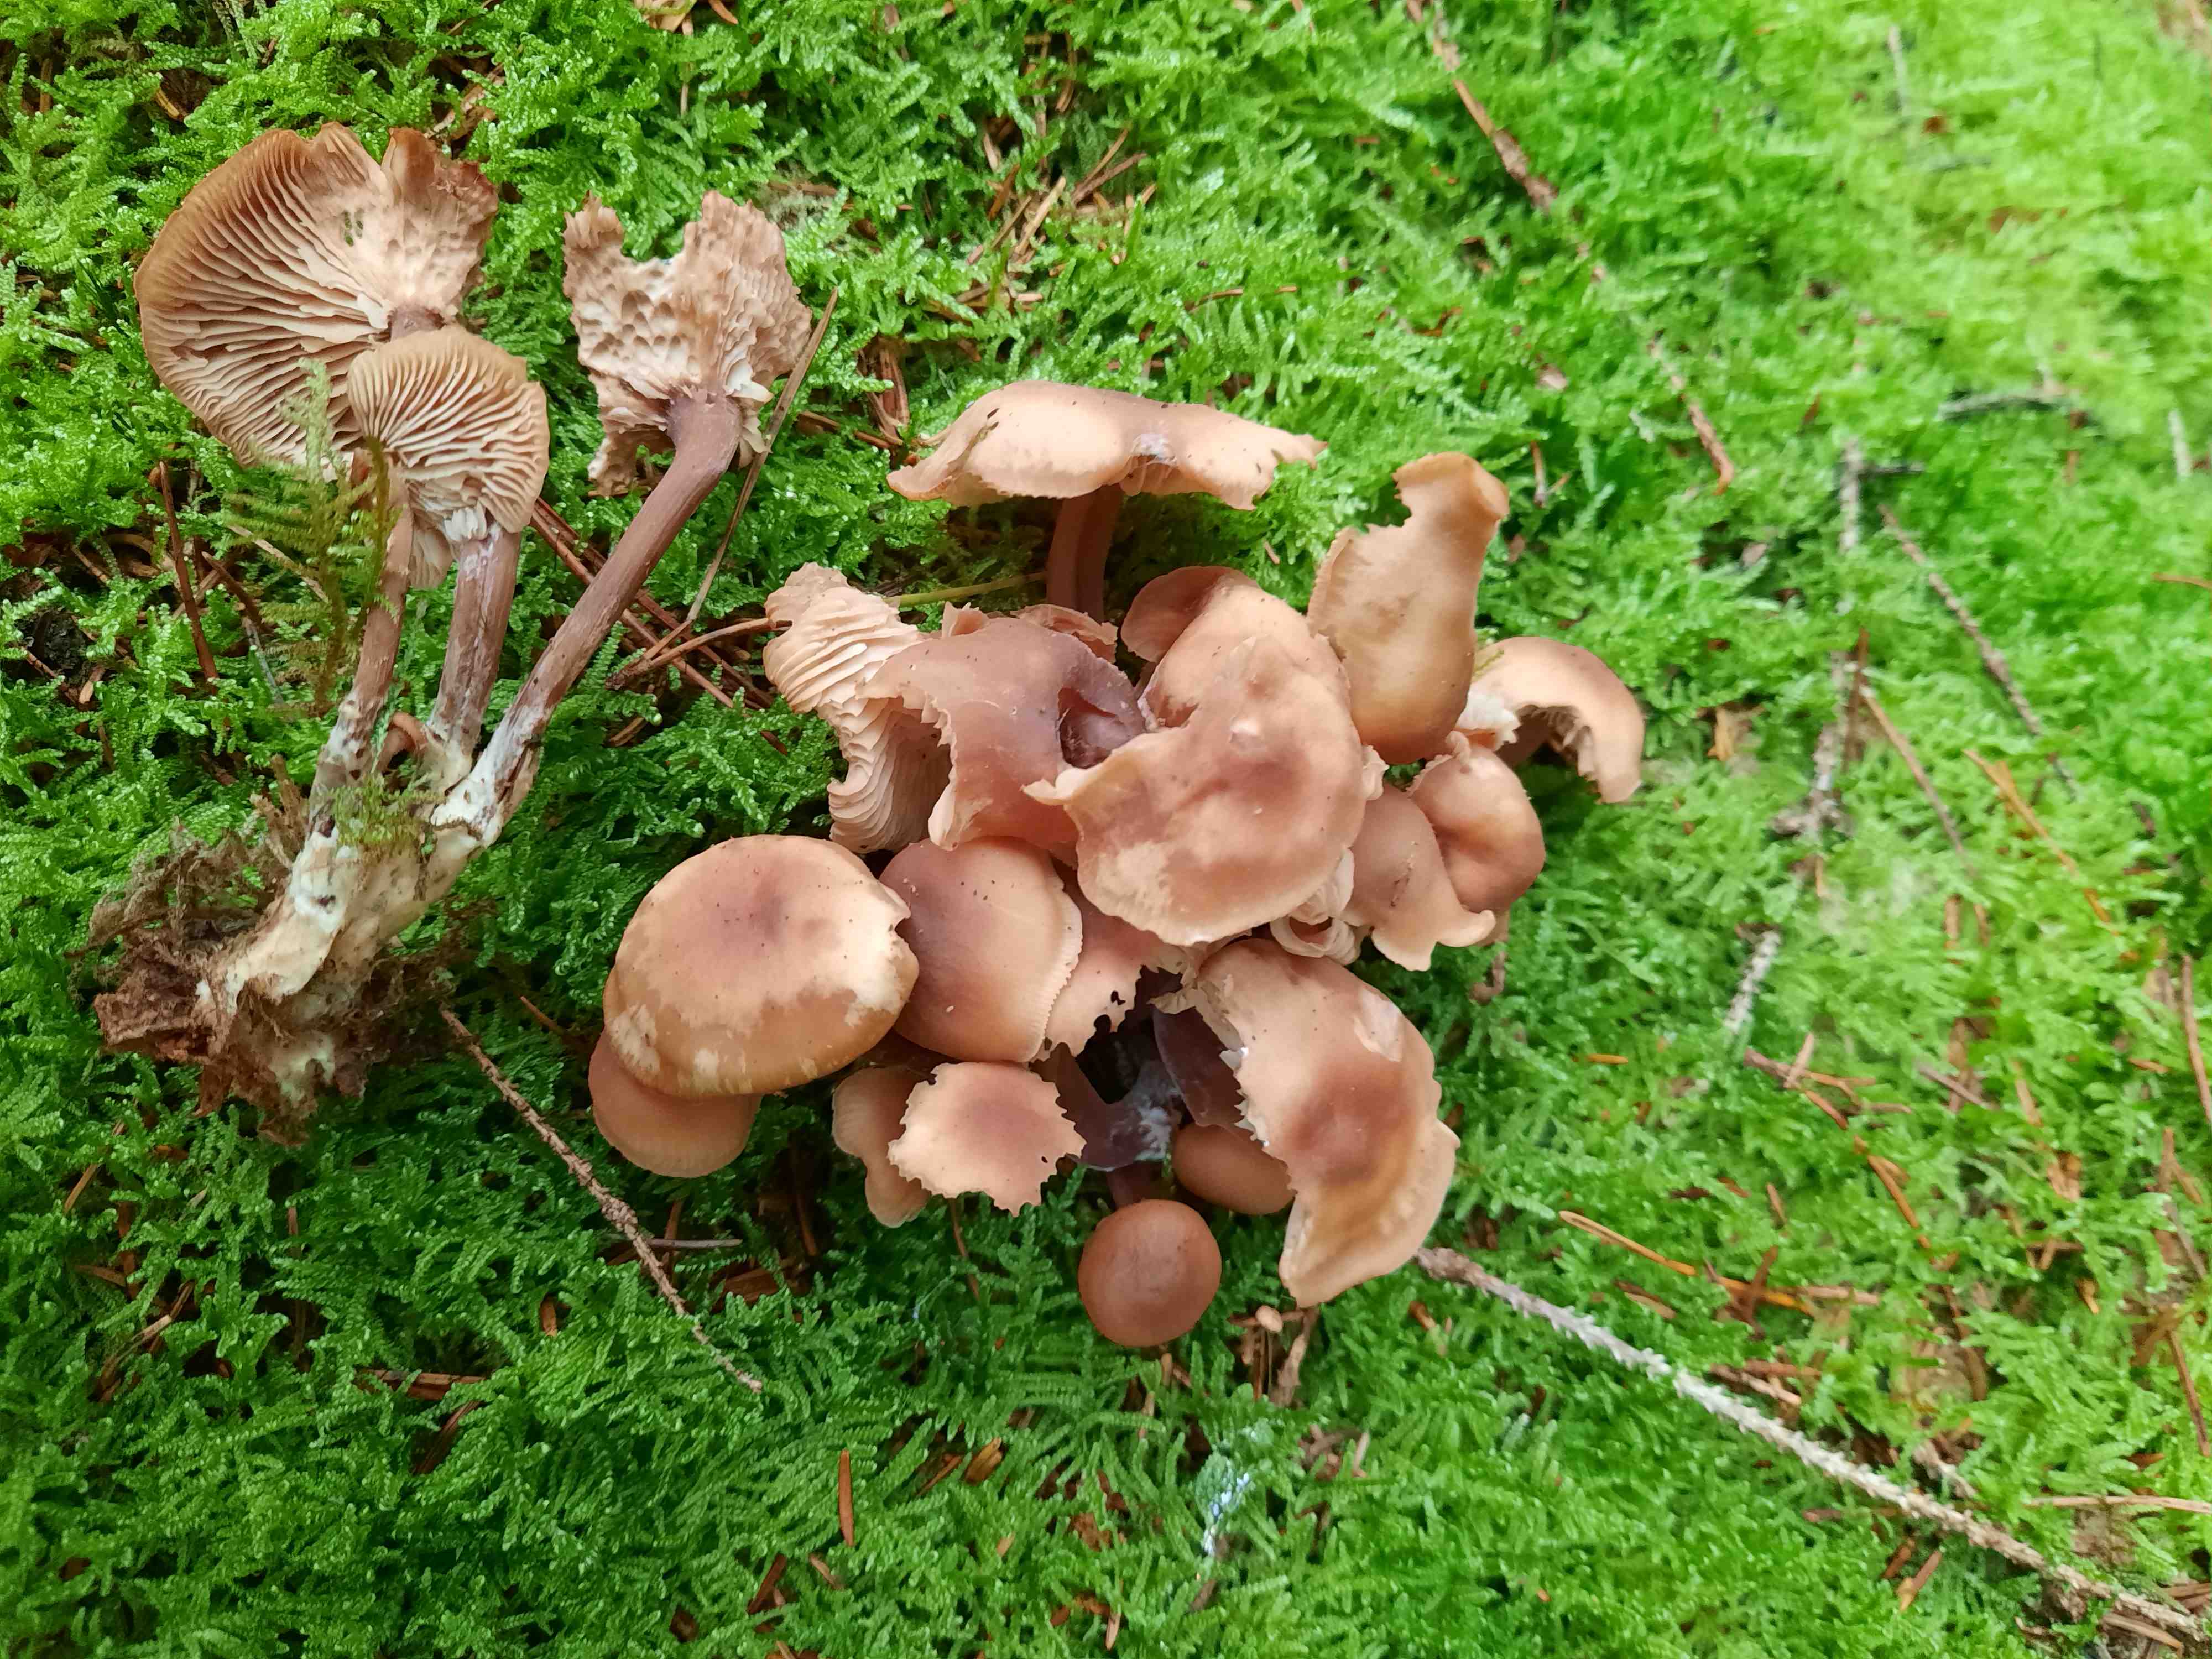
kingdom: Fungi
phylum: Basidiomycota
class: Agaricomycetes
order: Agaricales
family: Omphalotaceae
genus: Connopus
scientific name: Connopus acervatus
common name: tue-fladhat
